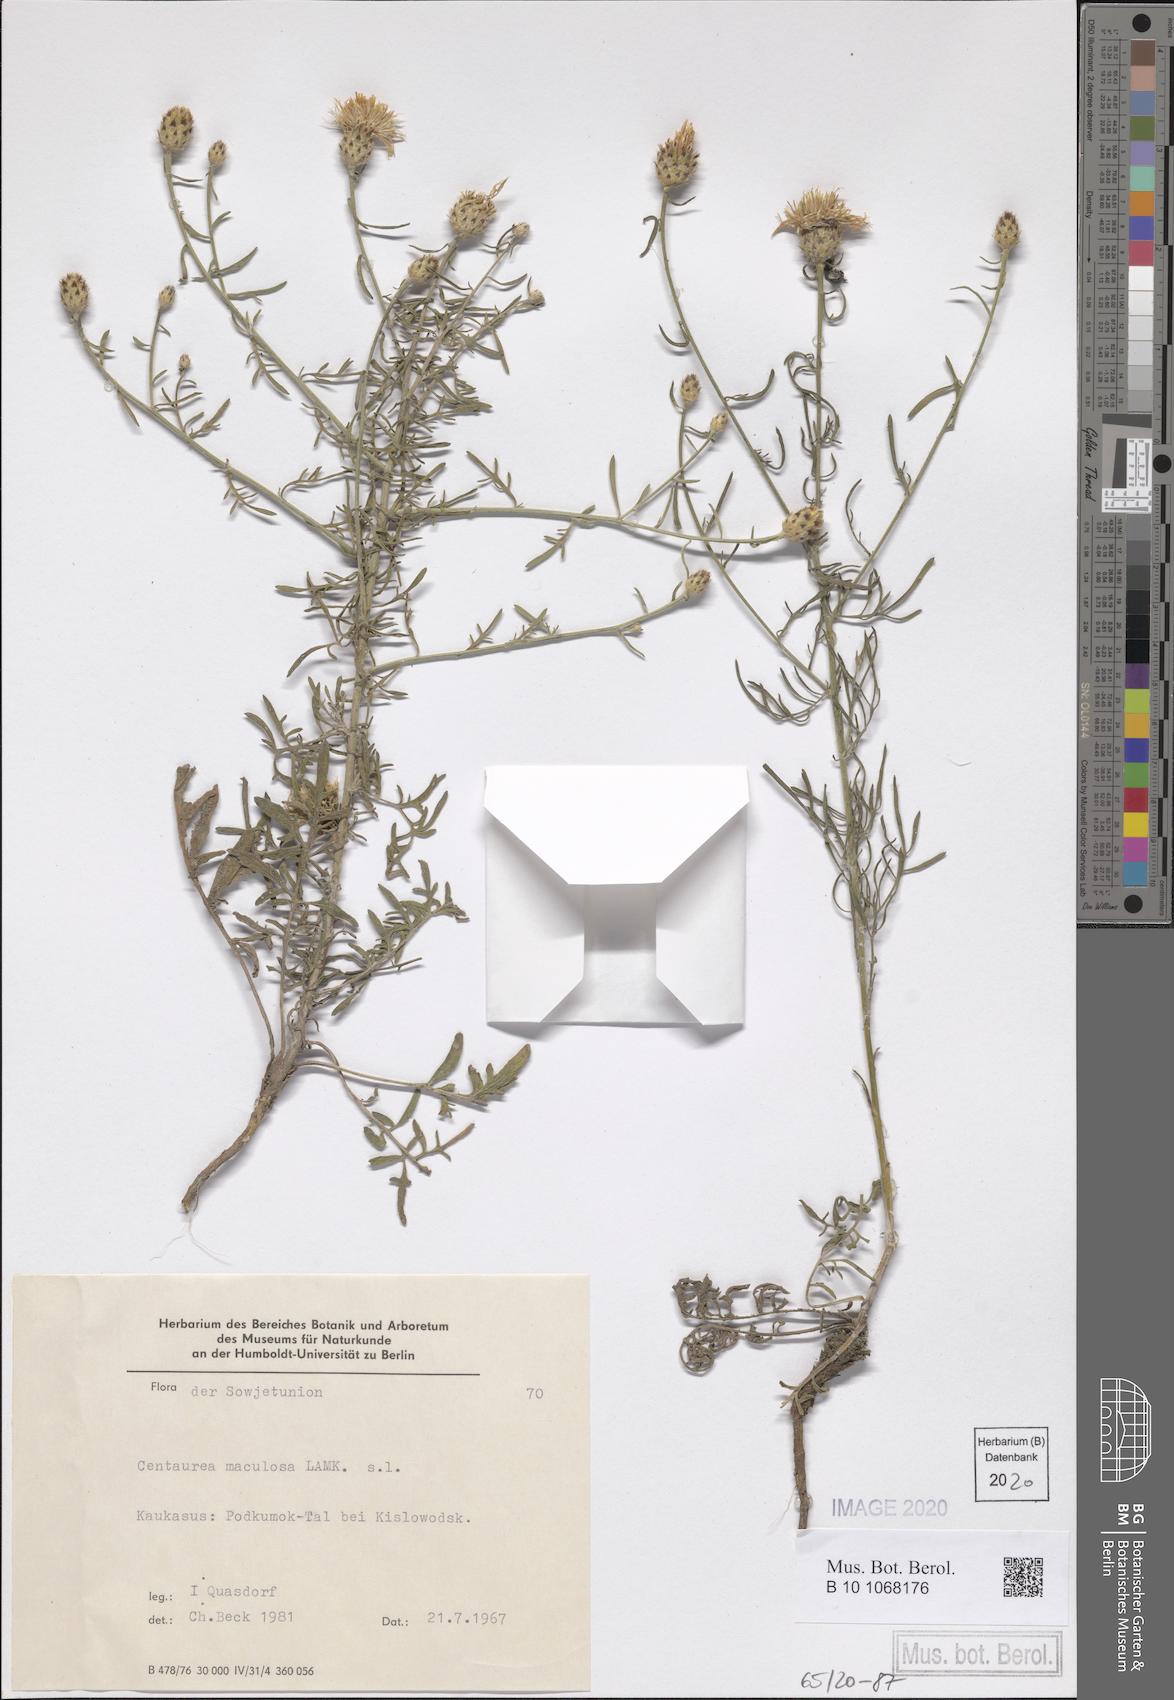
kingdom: Plantae
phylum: Tracheophyta
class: Magnoliopsida
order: Asterales
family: Asteraceae
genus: Centaurea
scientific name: Centaurea stoebe
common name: Spotted knapweed
